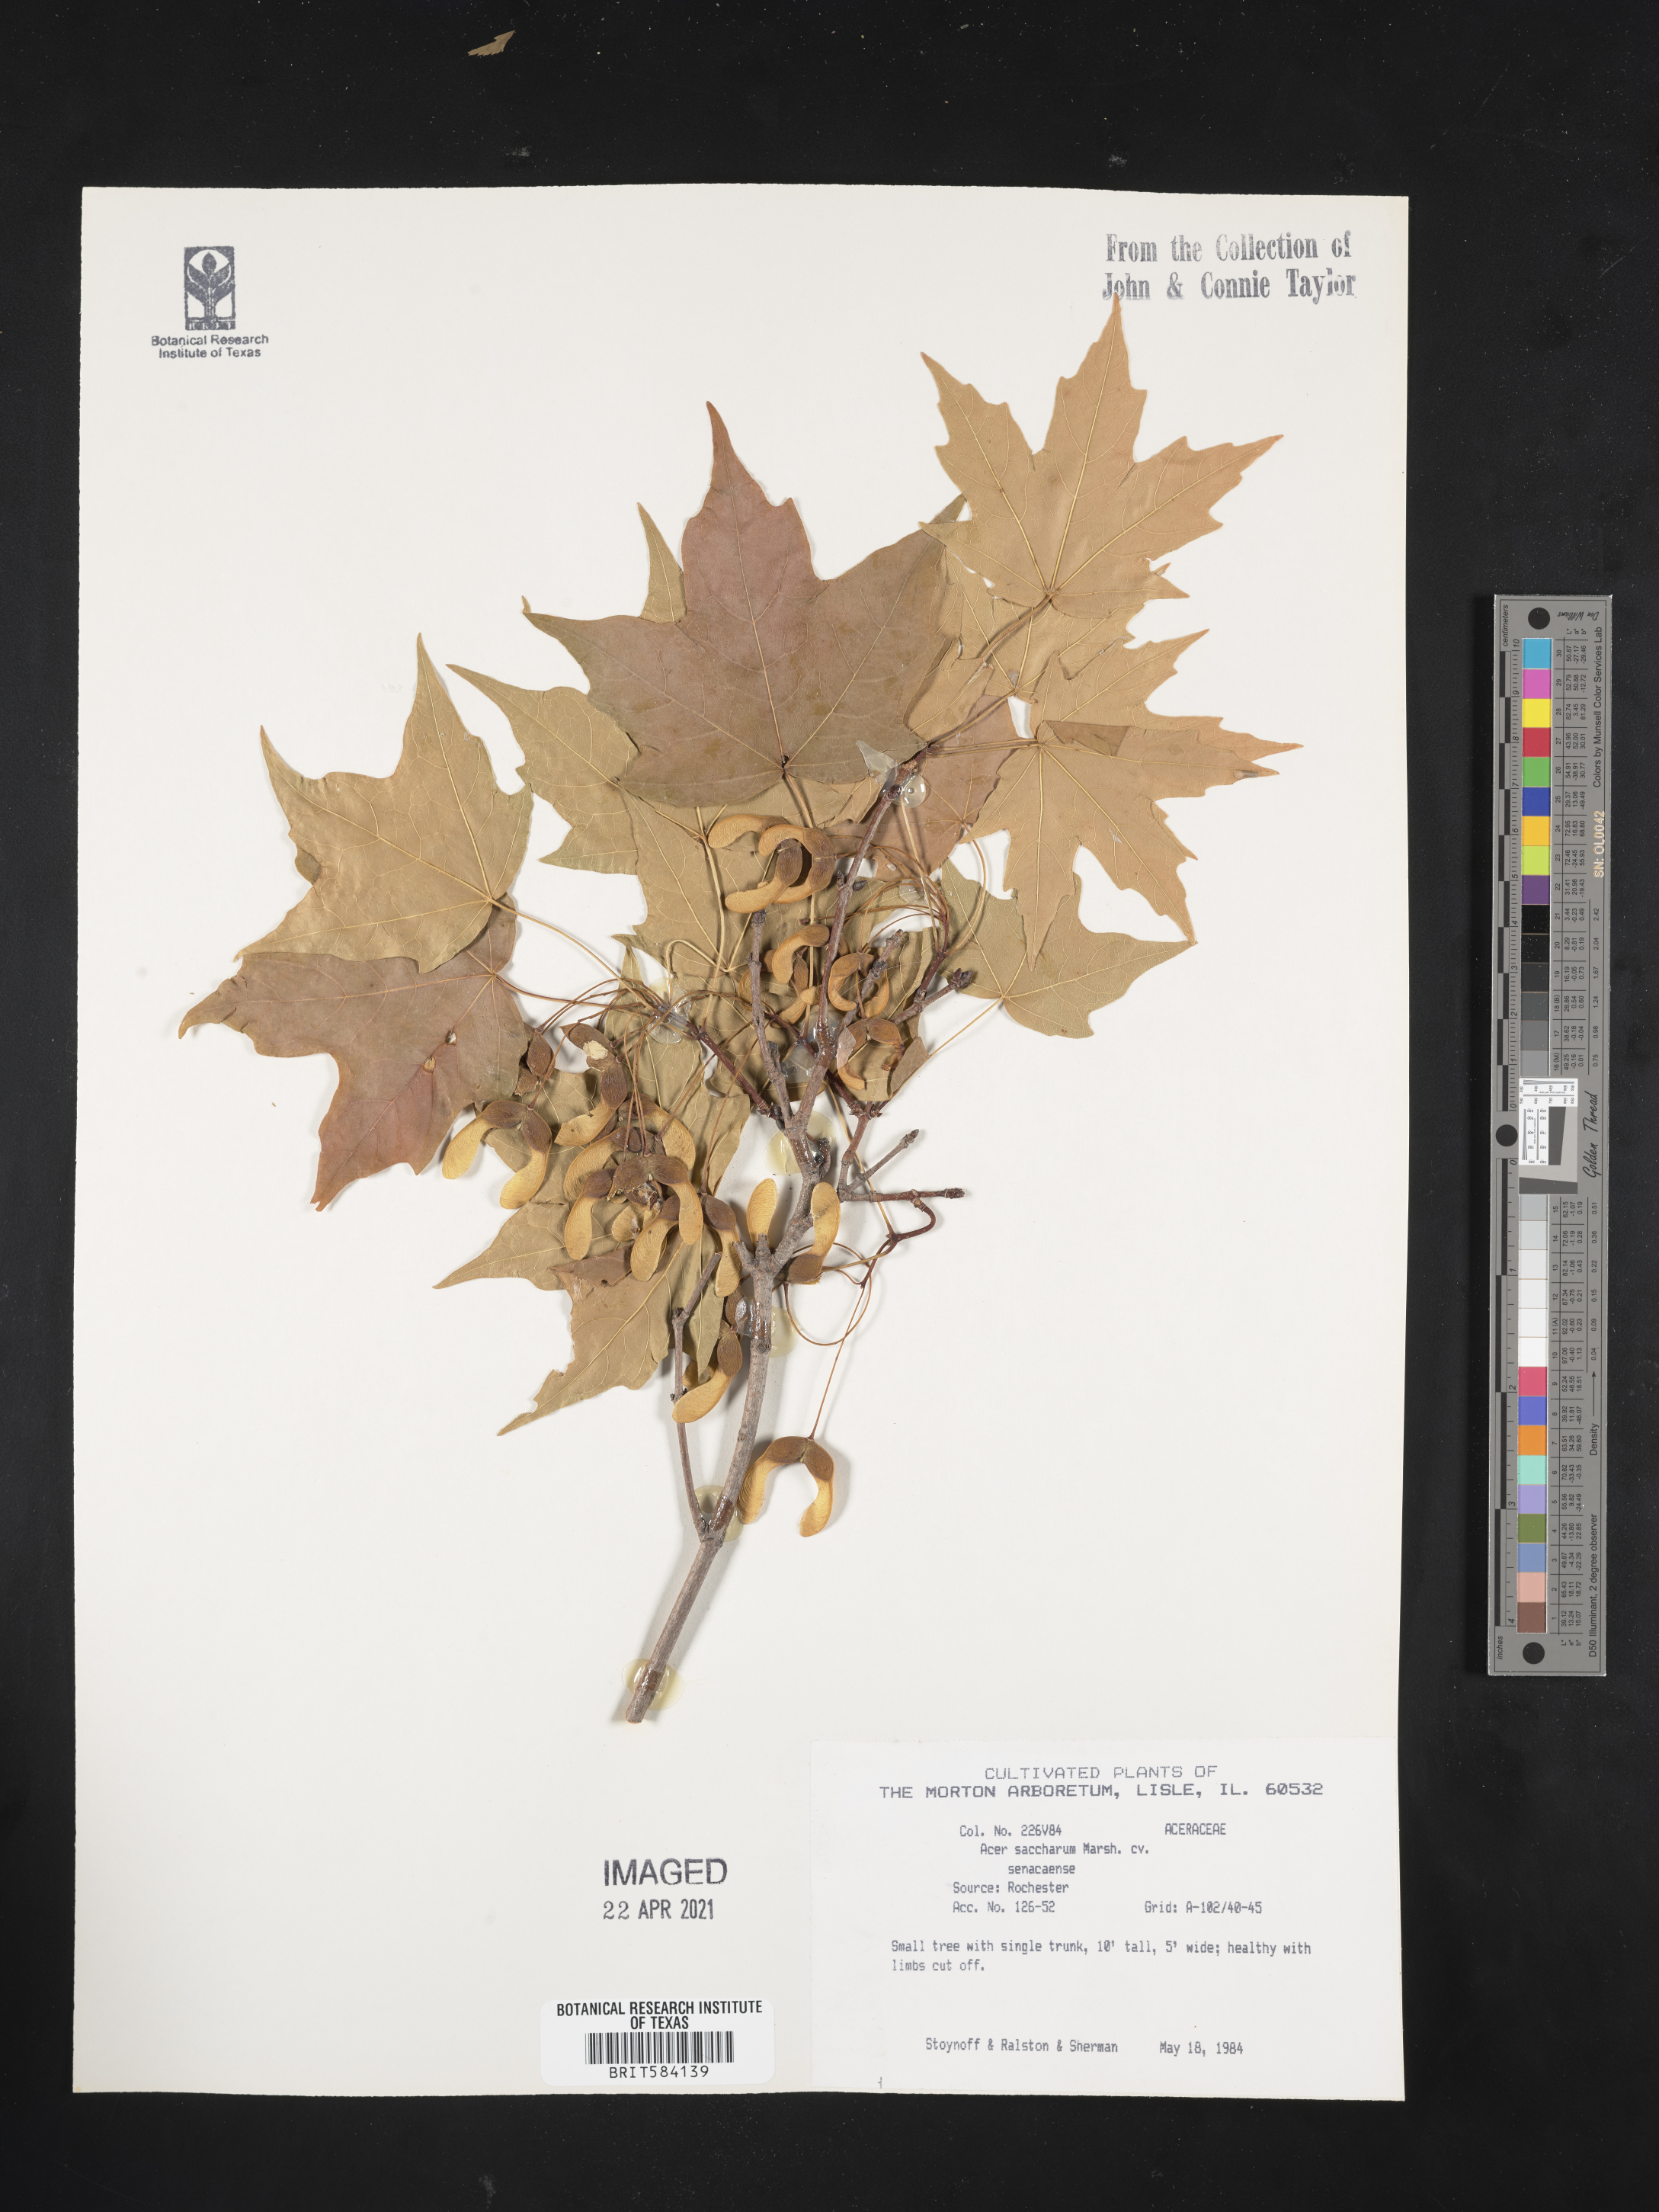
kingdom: Plantae
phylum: Tracheophyta
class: Magnoliopsida
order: Sapindales
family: Sapindaceae
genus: Acer
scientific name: Acer saccharum
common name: Sugar maple
